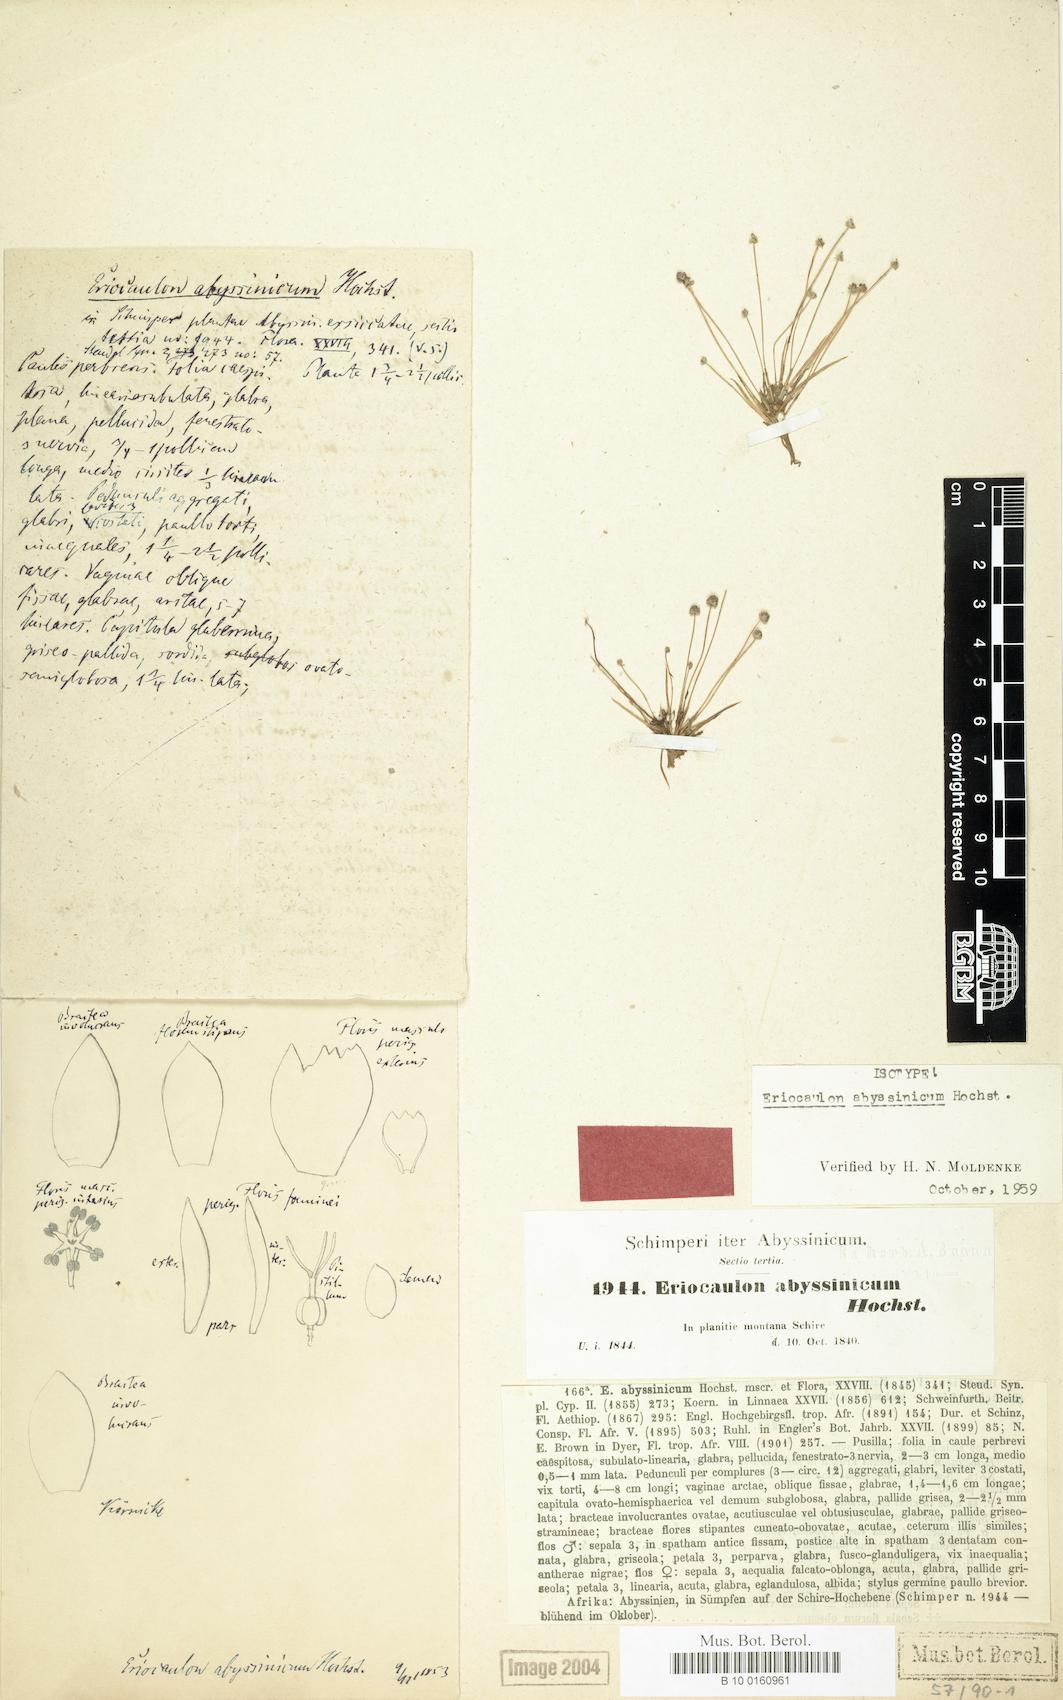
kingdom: Plantae
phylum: Tracheophyta
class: Liliopsida
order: Poales
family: Eriocaulaceae
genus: Eriocaulon
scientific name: Eriocaulon abyssinicum
